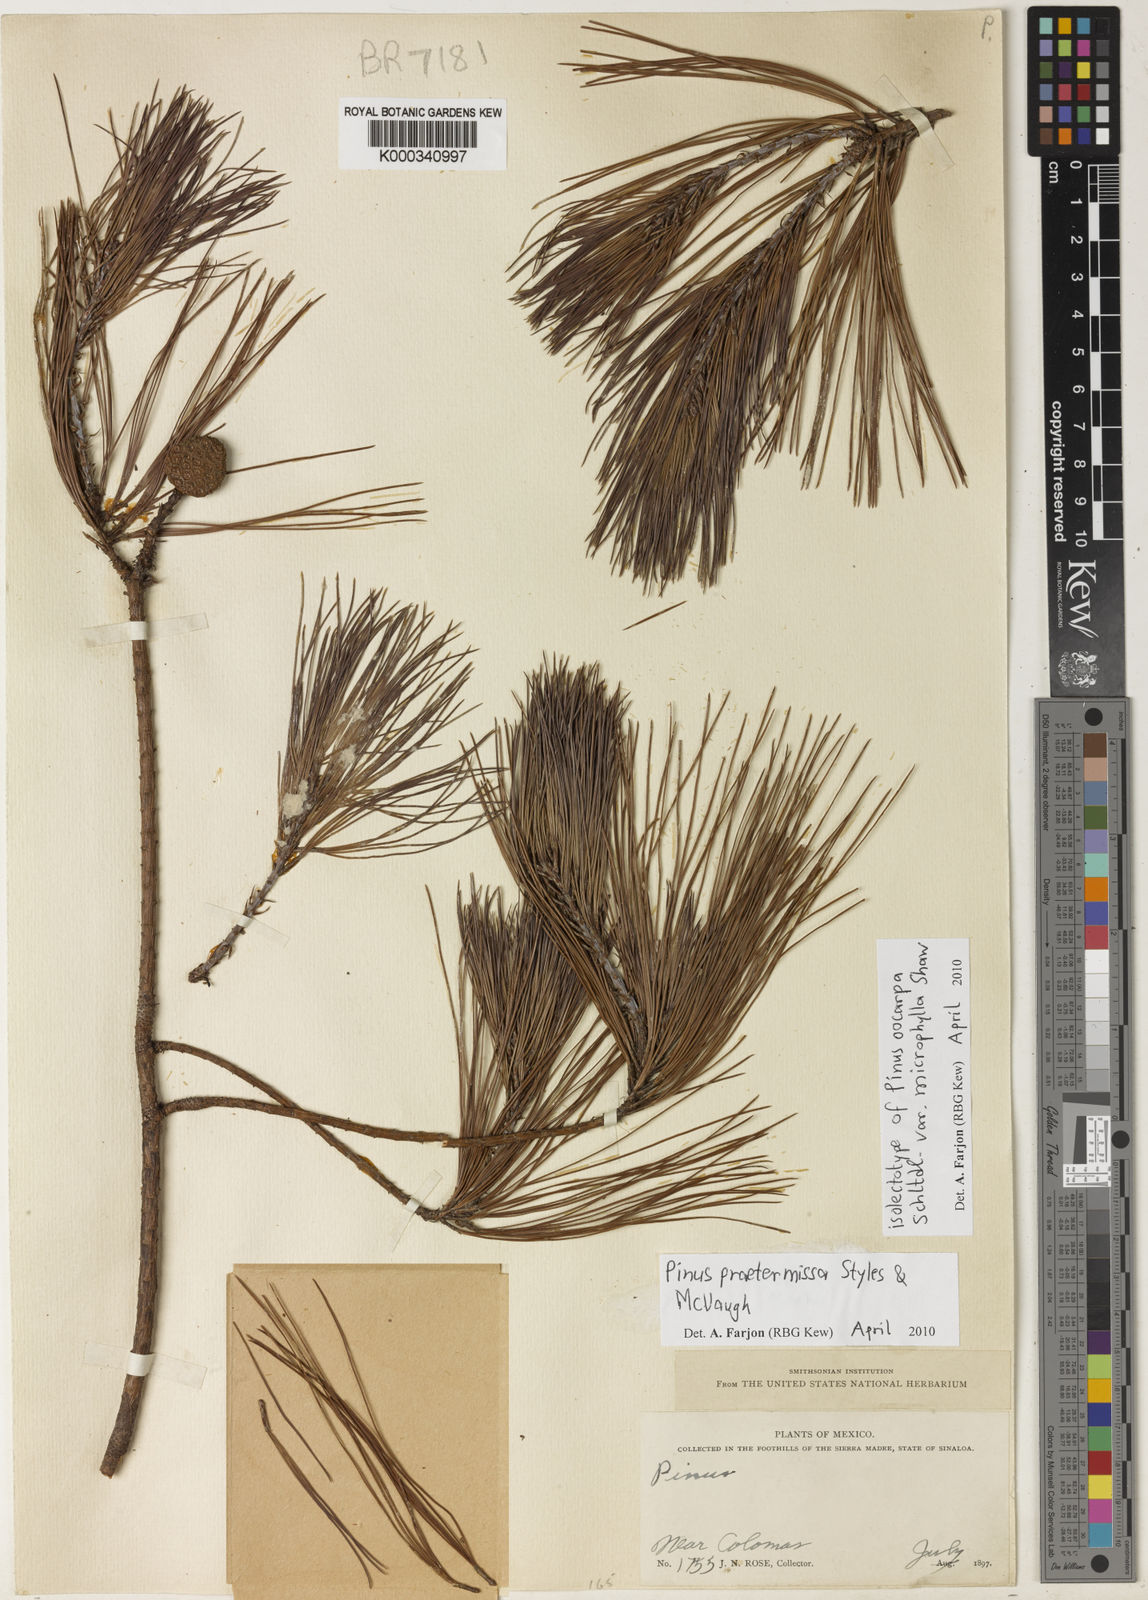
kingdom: Plantae
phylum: Tracheophyta
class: Pinopsida
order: Pinales
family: Pinaceae
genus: Pinus
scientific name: Pinus praetermissa
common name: Pino chino
